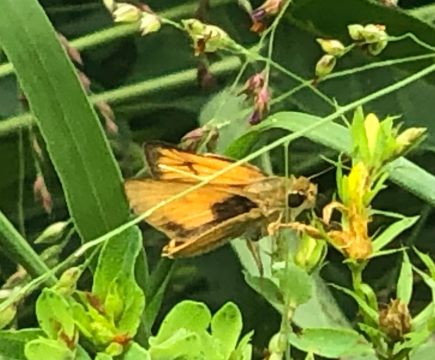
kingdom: Animalia
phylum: Arthropoda
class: Insecta
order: Lepidoptera
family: Hesperiidae
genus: Atrytone
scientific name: Atrytone delaware
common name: Delaware Skipper
